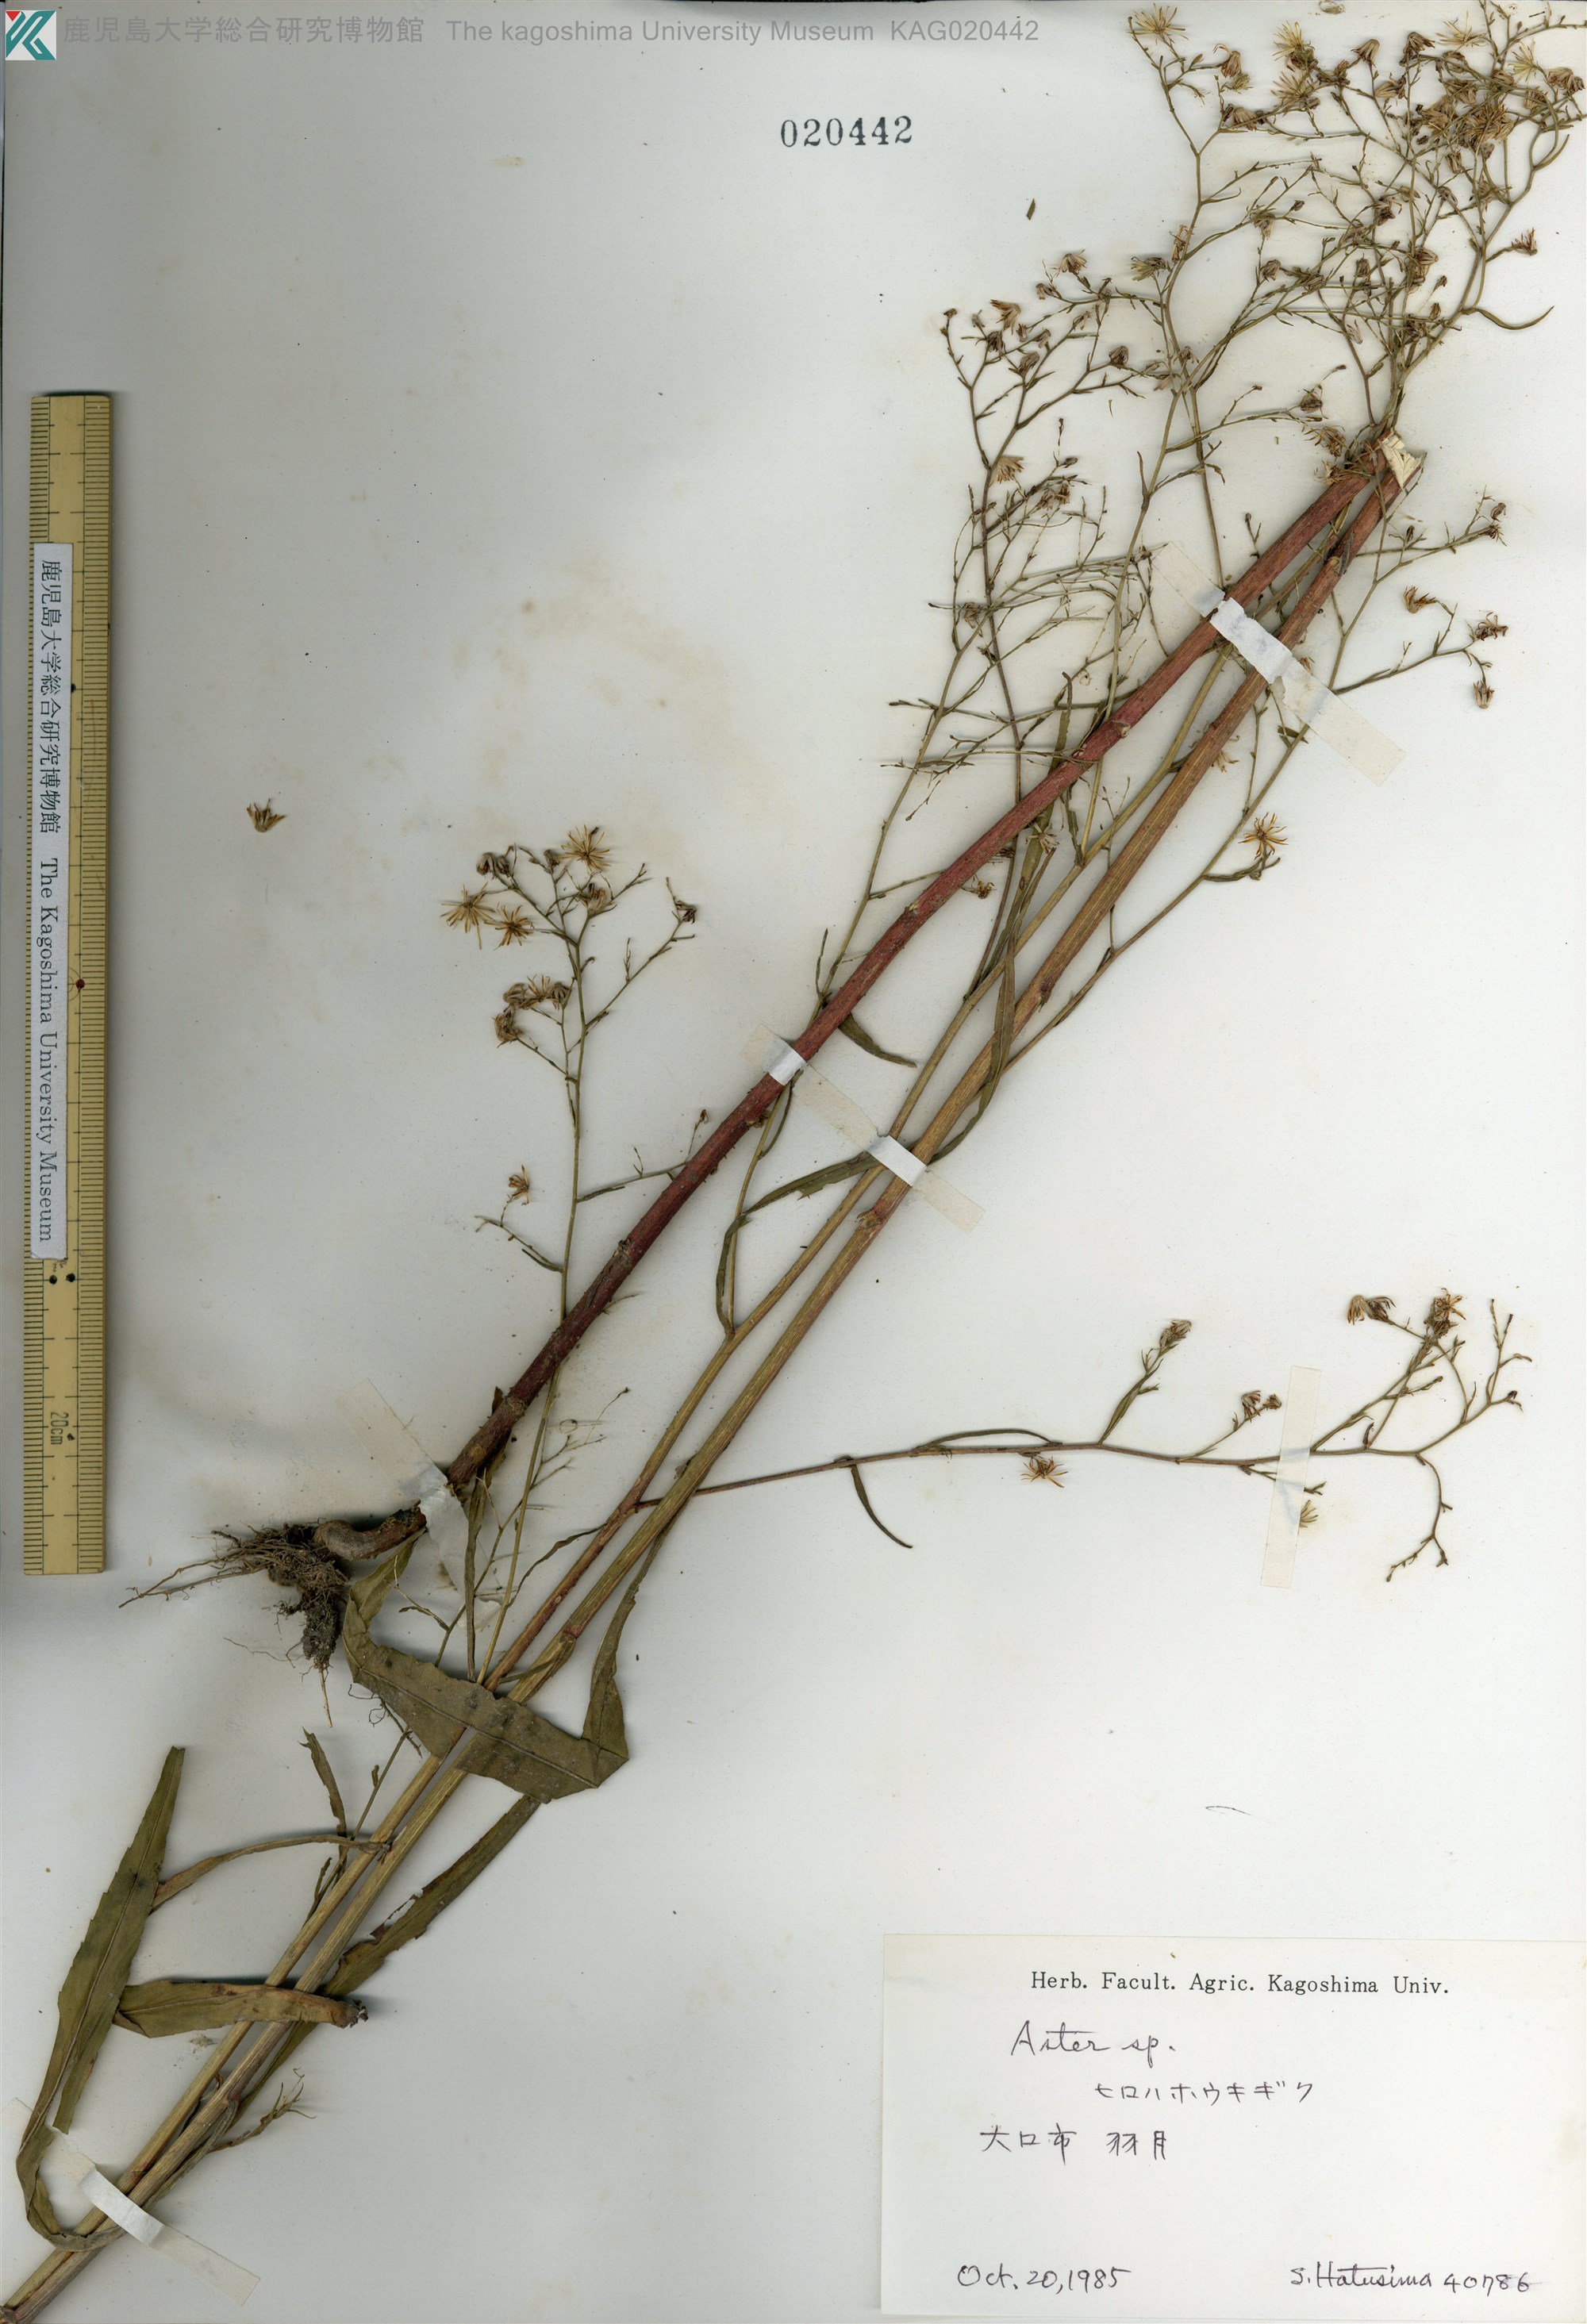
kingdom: Plantae
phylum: Tracheophyta
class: Magnoliopsida
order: Asterales
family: Asteraceae
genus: Symphyotrichum
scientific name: Symphyotrichum subulatum
